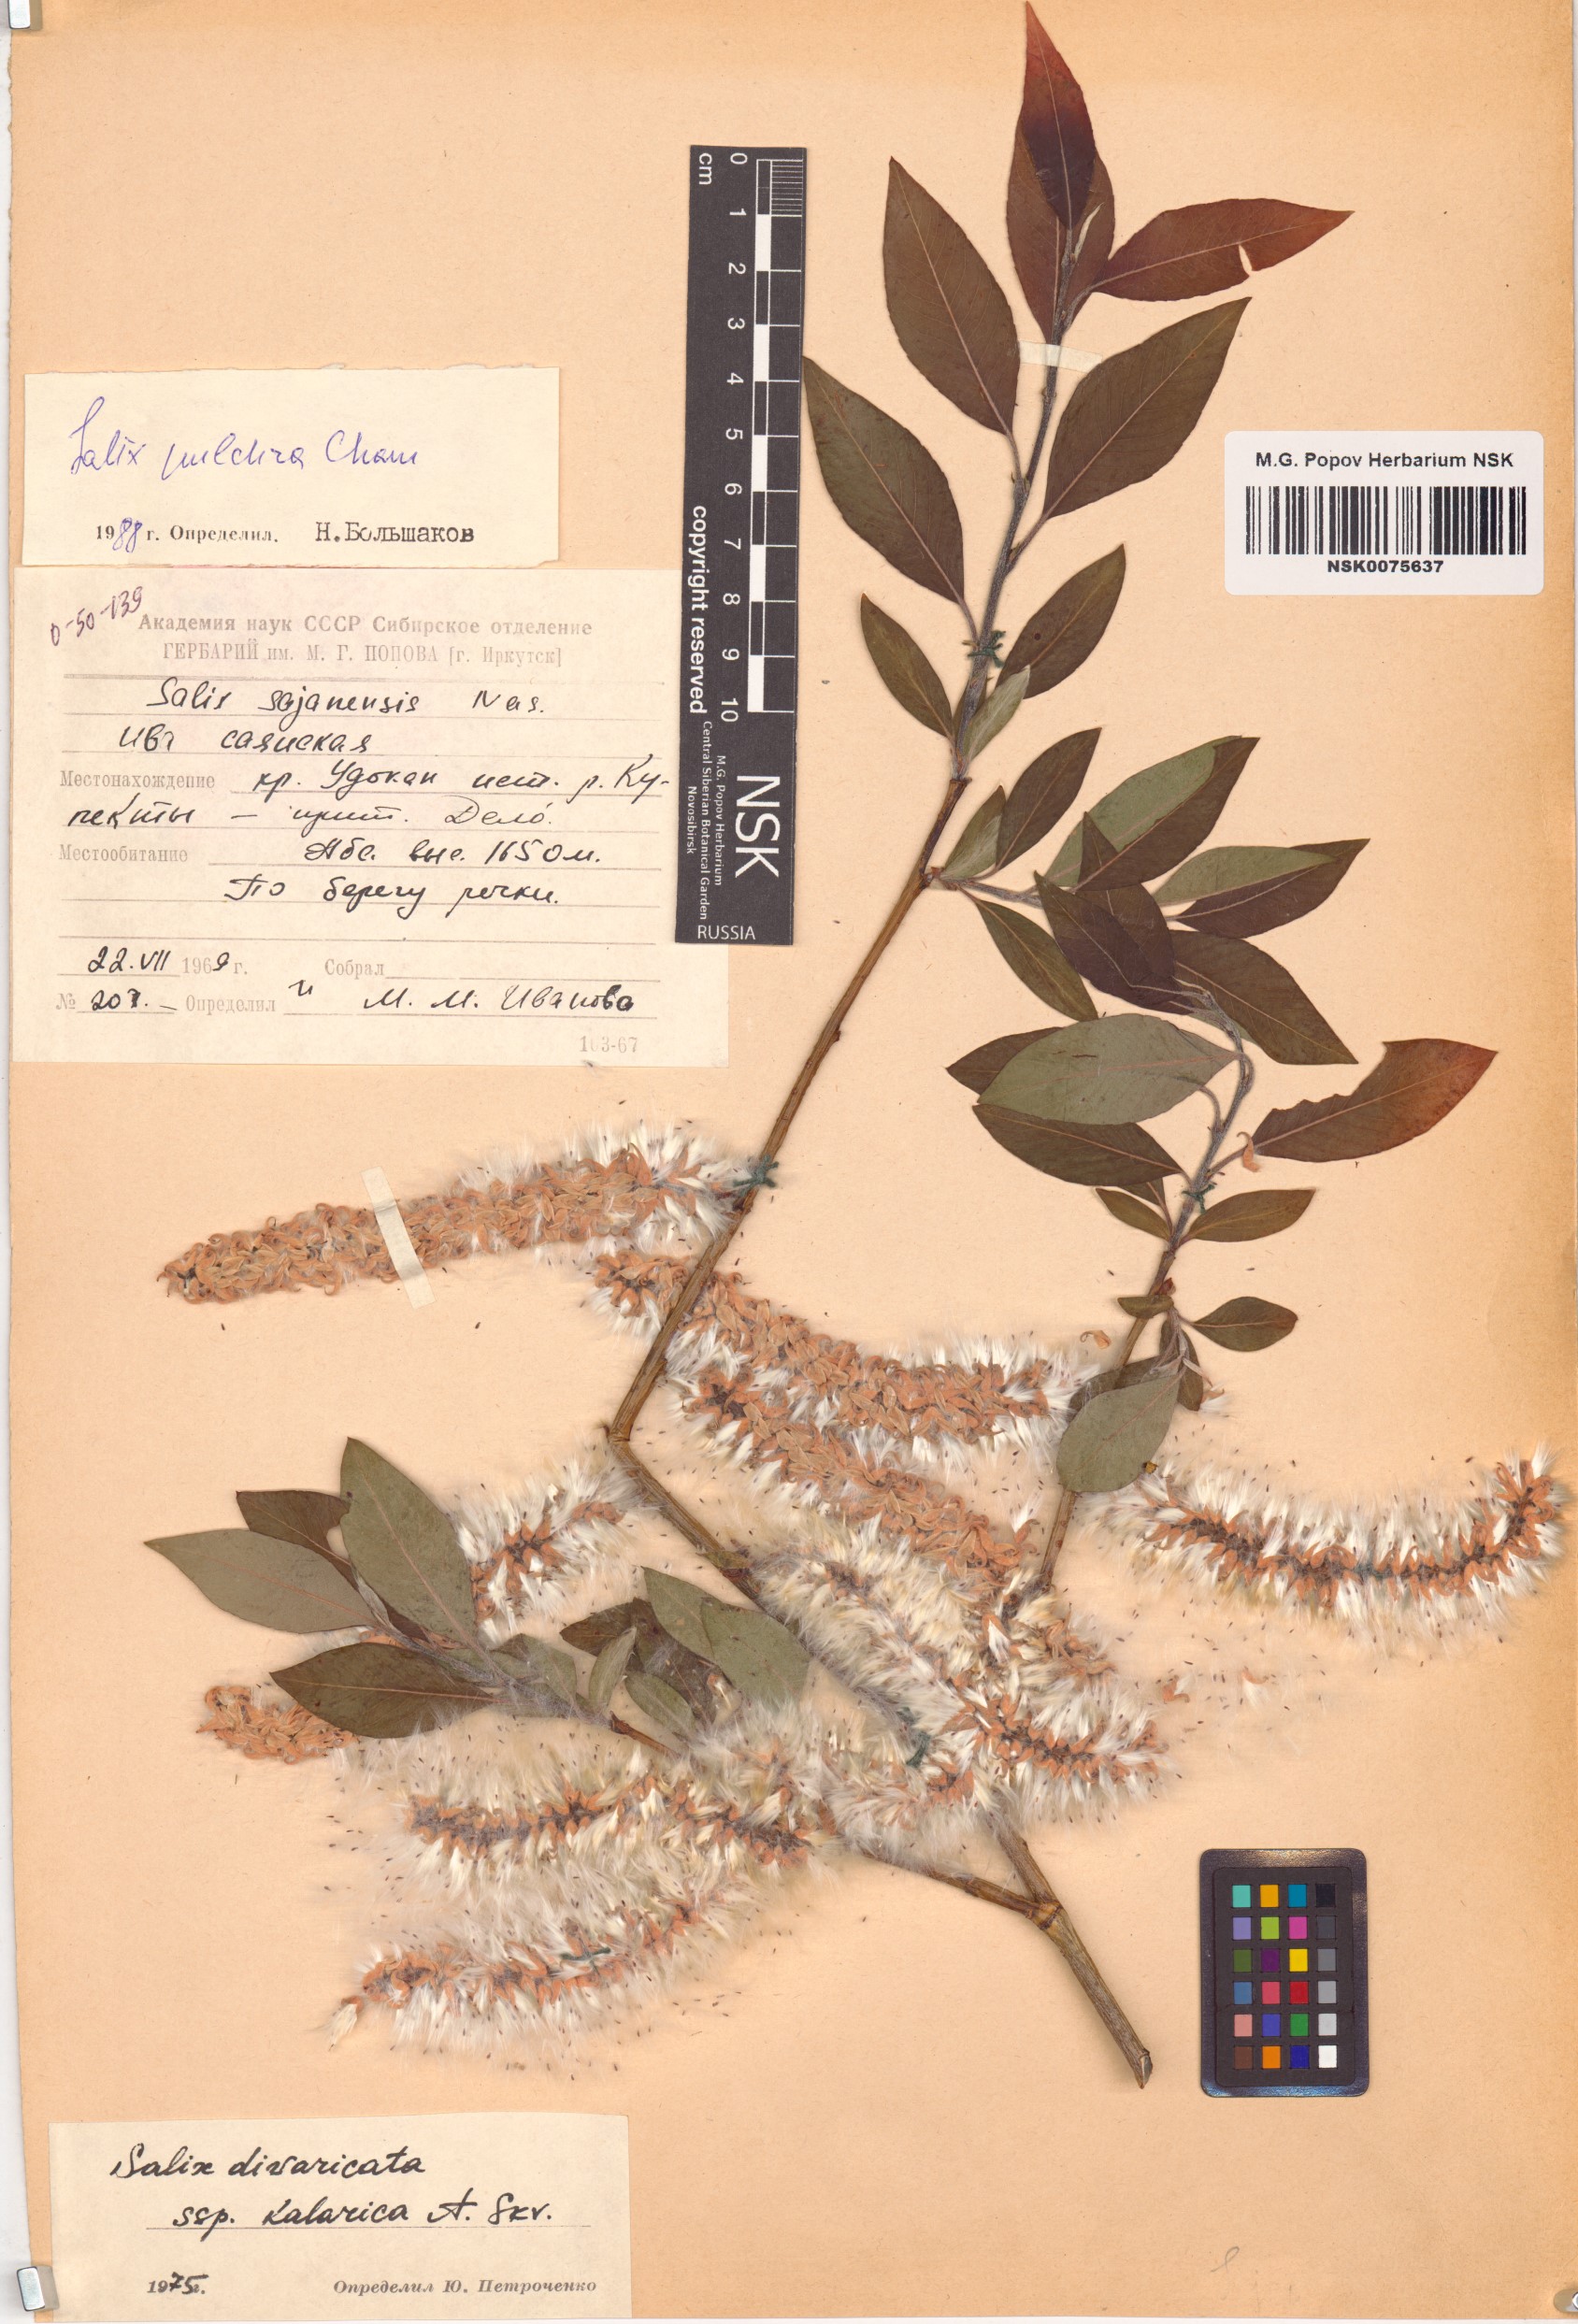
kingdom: Plantae
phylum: Tracheophyta
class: Magnoliopsida
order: Malpighiales
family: Salicaceae
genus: Salix
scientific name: Salix pulchra
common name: Diamond-leaved willow
